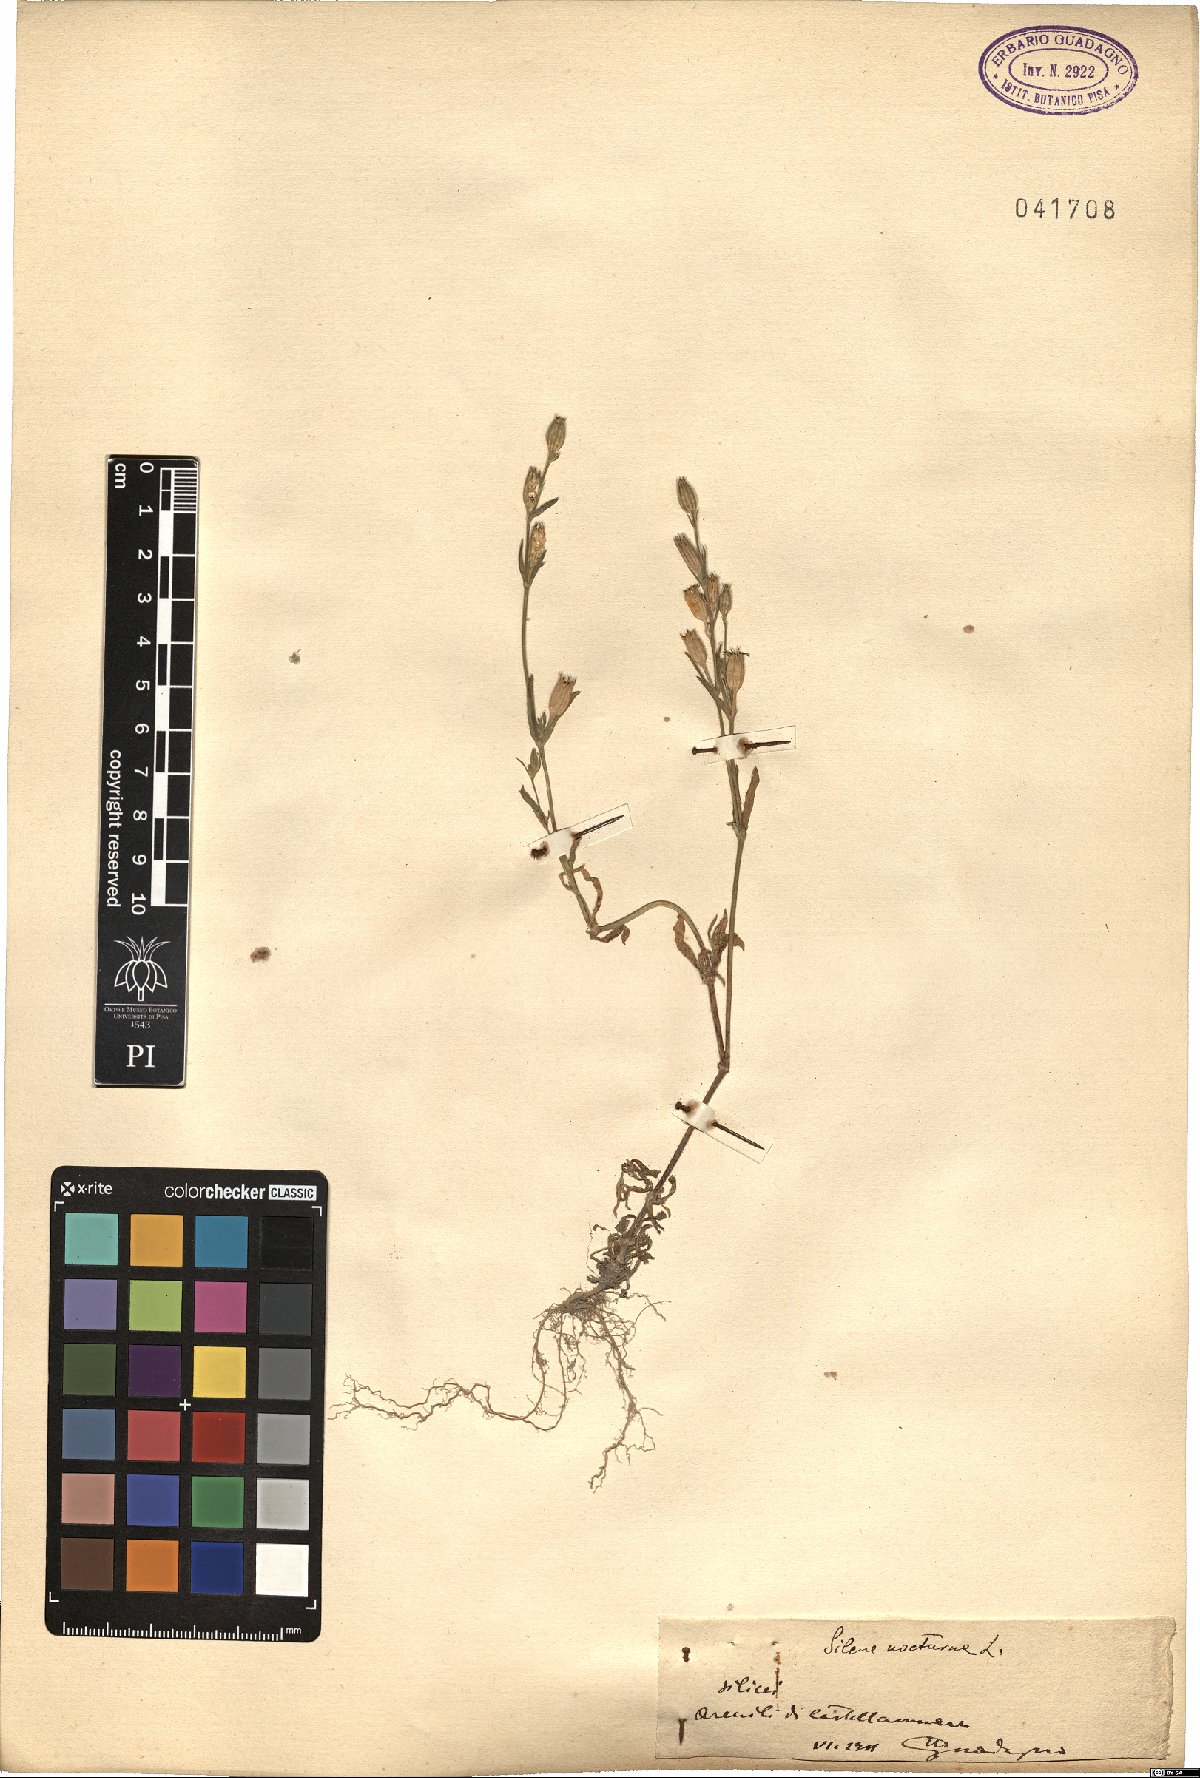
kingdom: Plantae
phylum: Tracheophyta
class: Magnoliopsida
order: Caryophyllales
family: Caryophyllaceae
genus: Silene
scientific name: Silene nocturna
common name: Mediterranean catchfly
